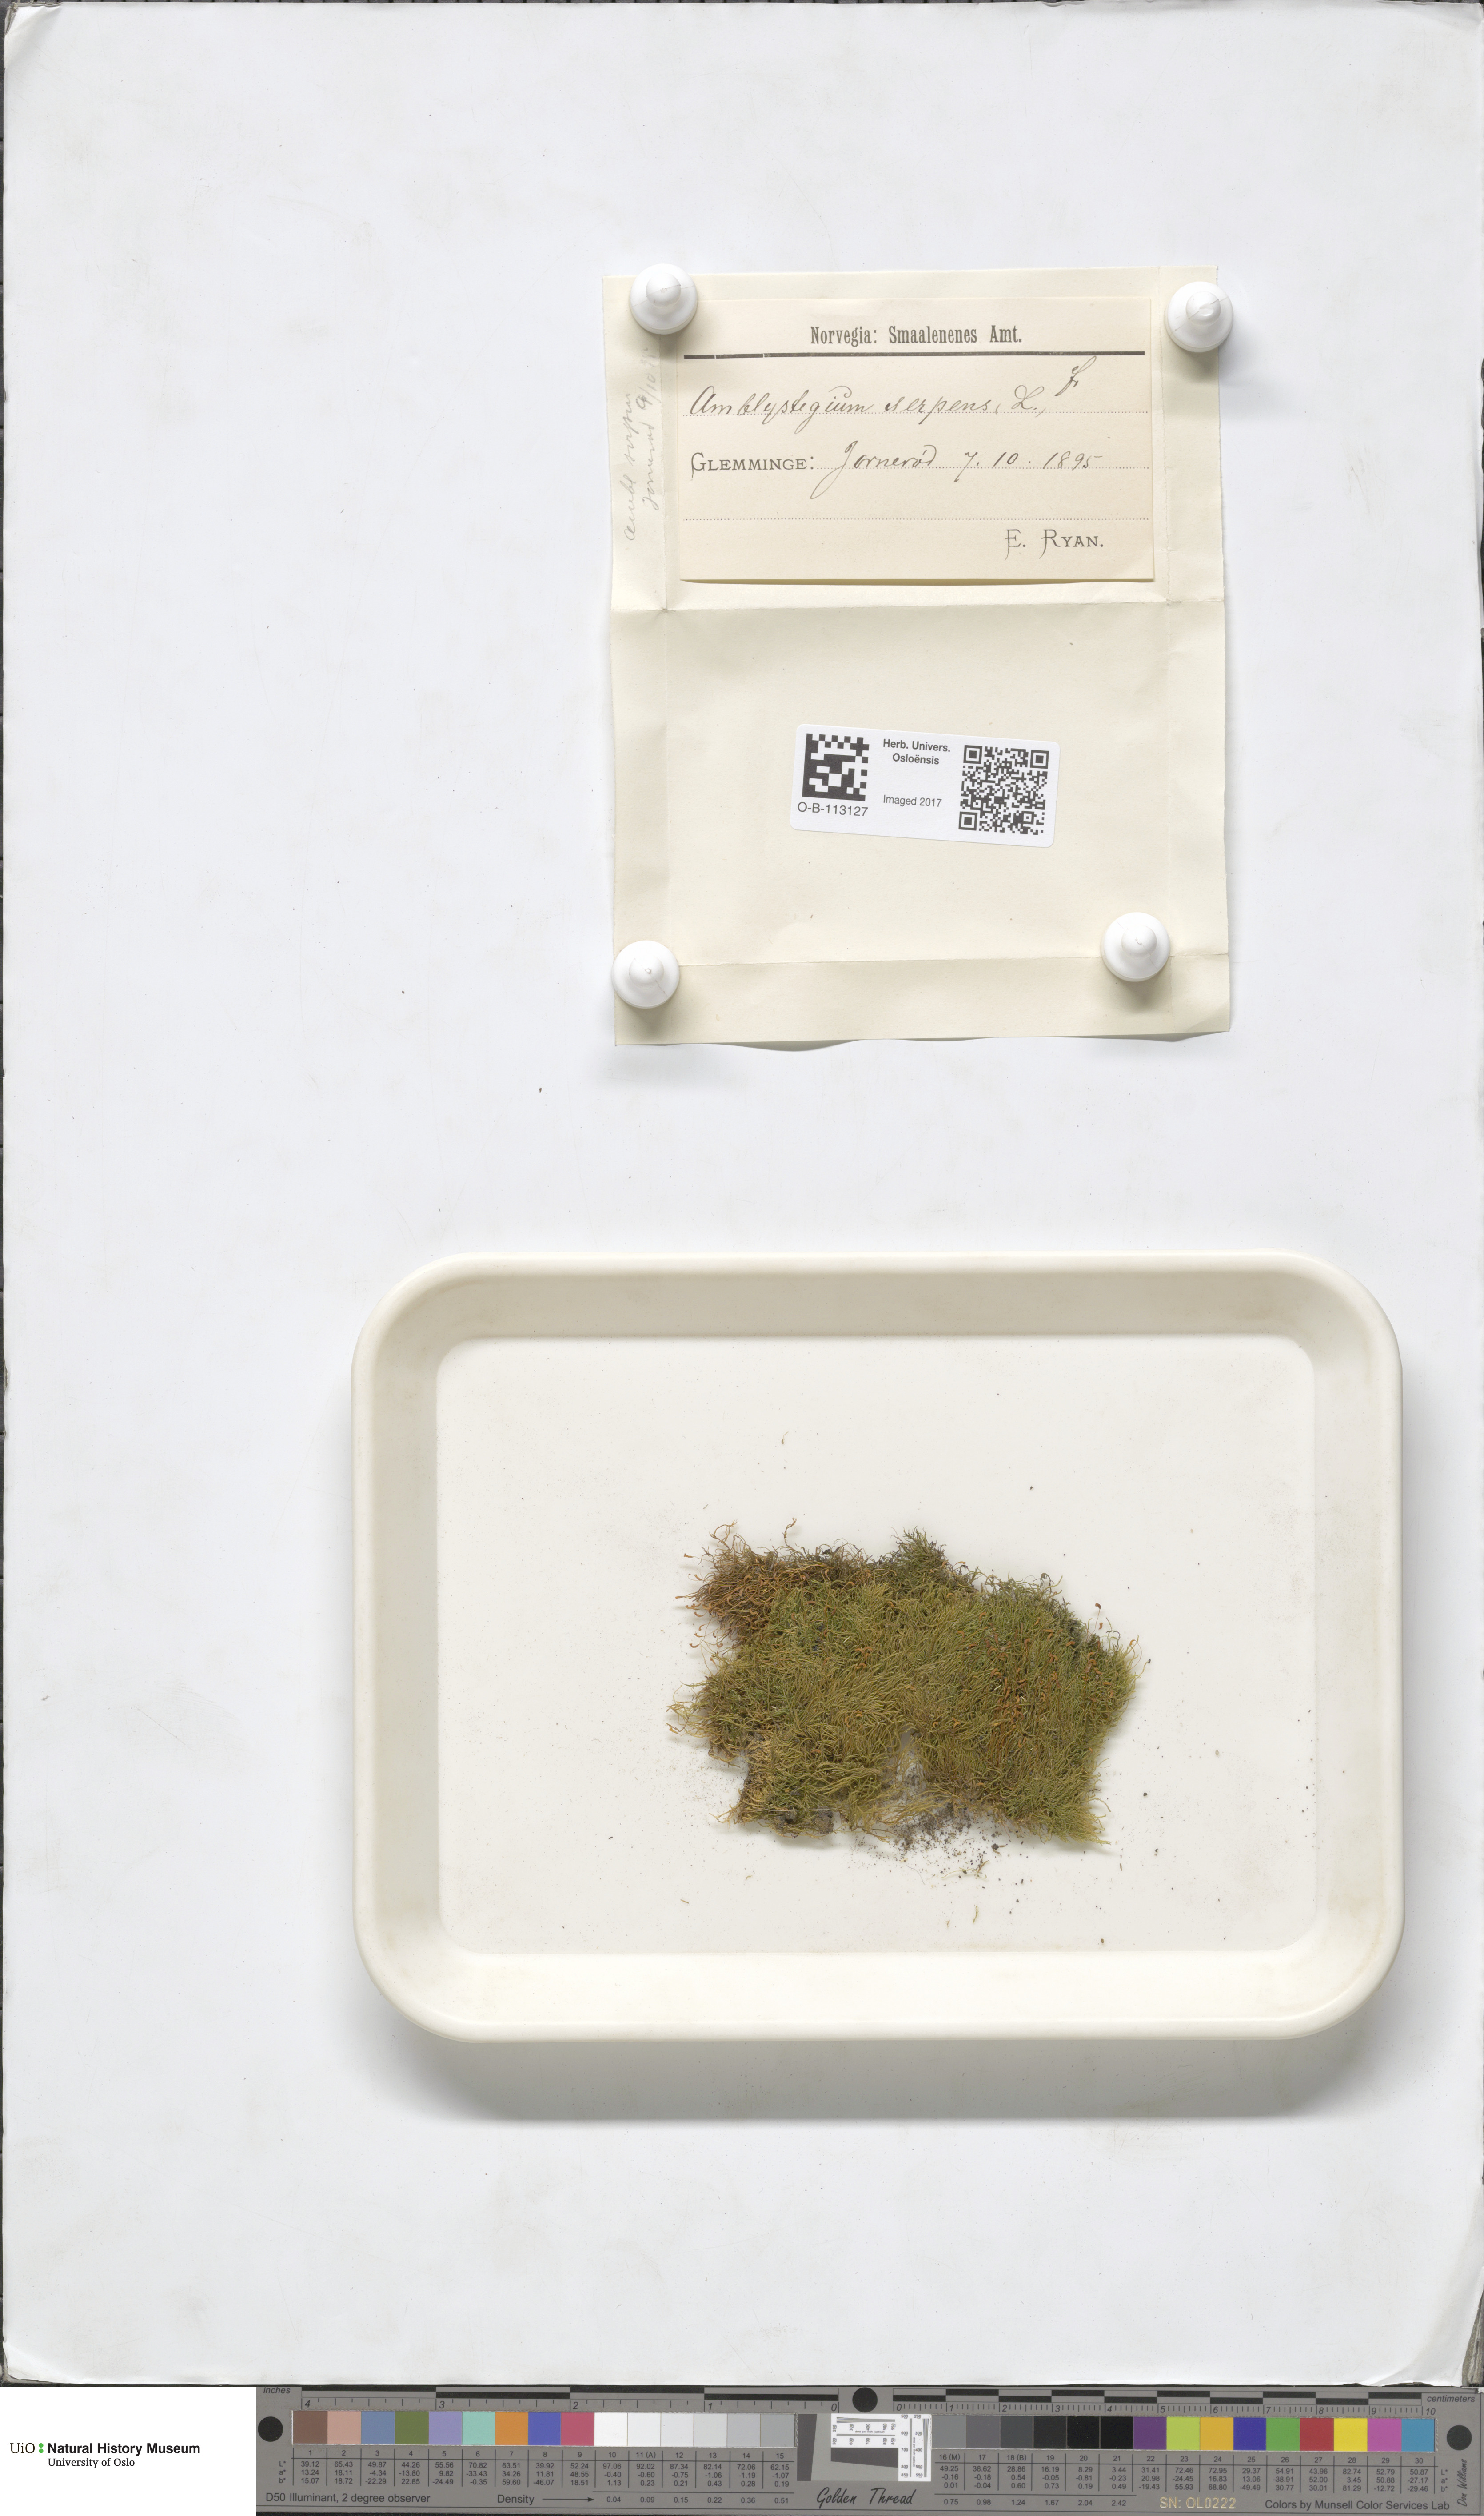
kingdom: Plantae
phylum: Bryophyta
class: Bryopsida
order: Hypnales
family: Amblystegiaceae
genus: Amblystegium
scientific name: Amblystegium serpens
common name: Jurkatzka's feather moss
